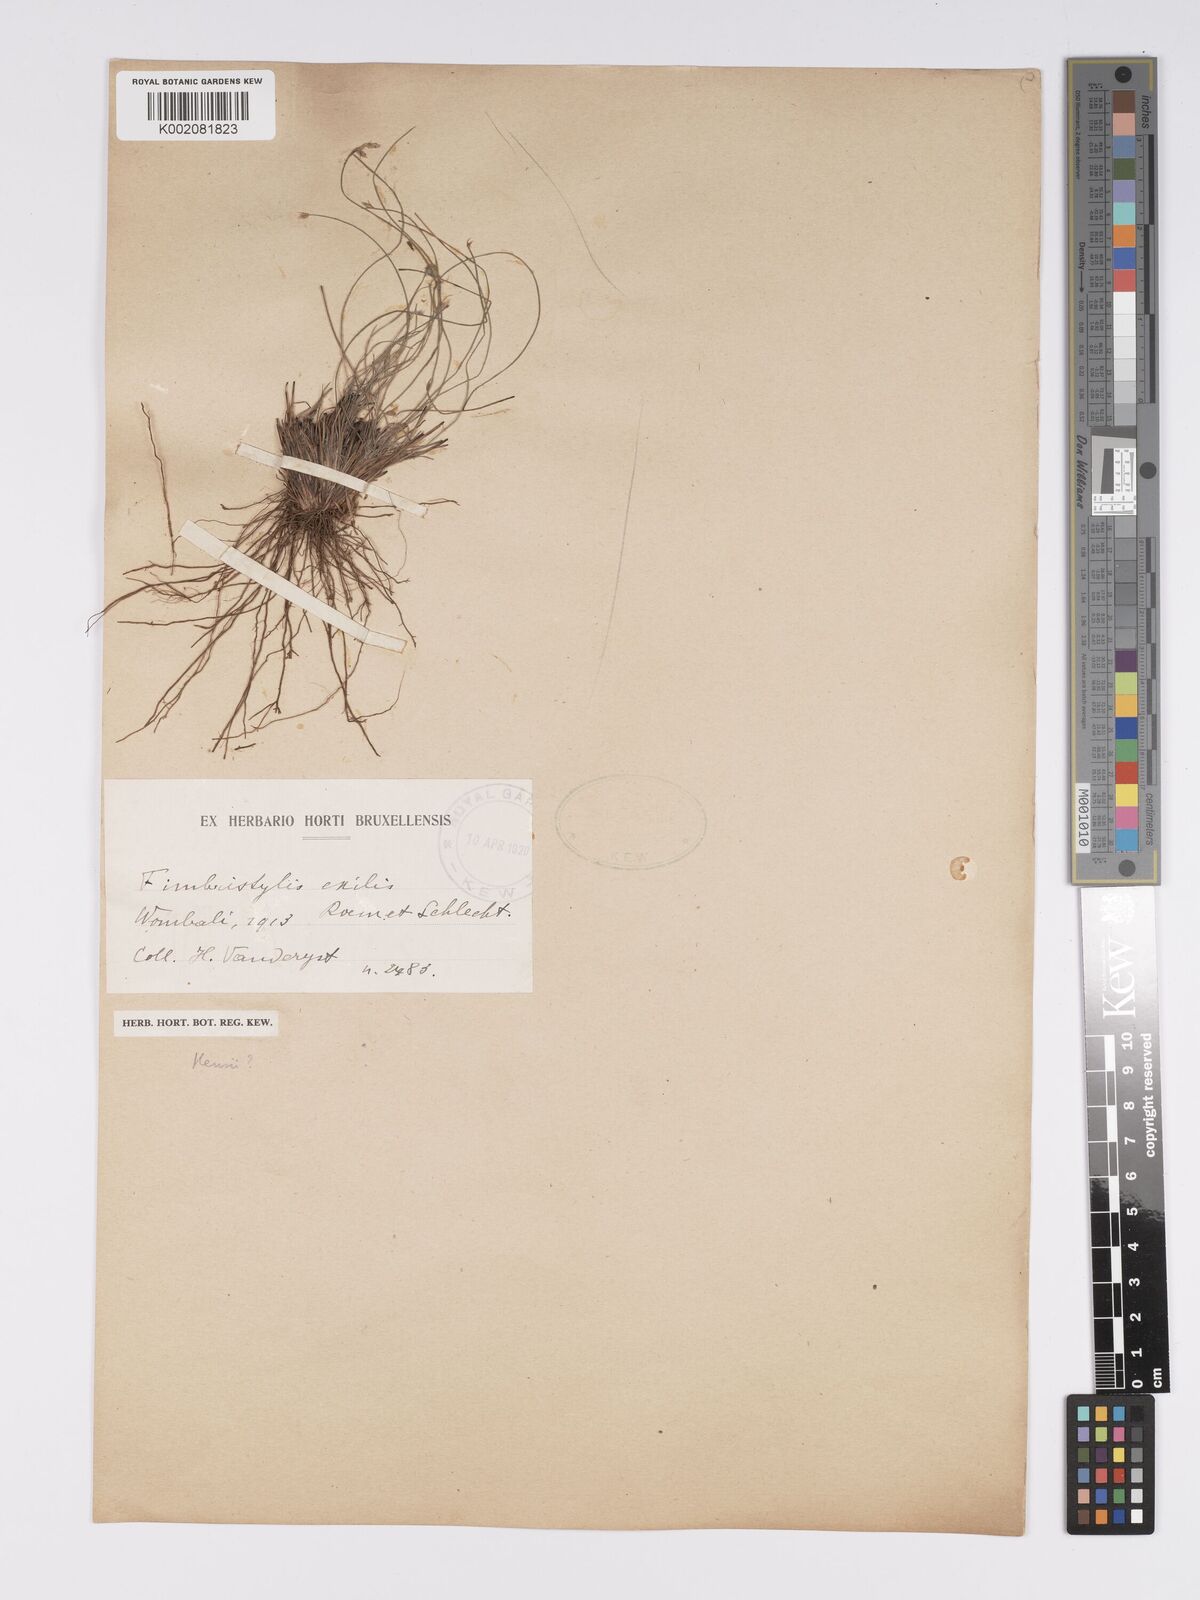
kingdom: Plantae
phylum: Tracheophyta
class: Liliopsida
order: Poales
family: Cyperaceae
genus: Bulbostylis
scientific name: Bulbostylis hispidula
